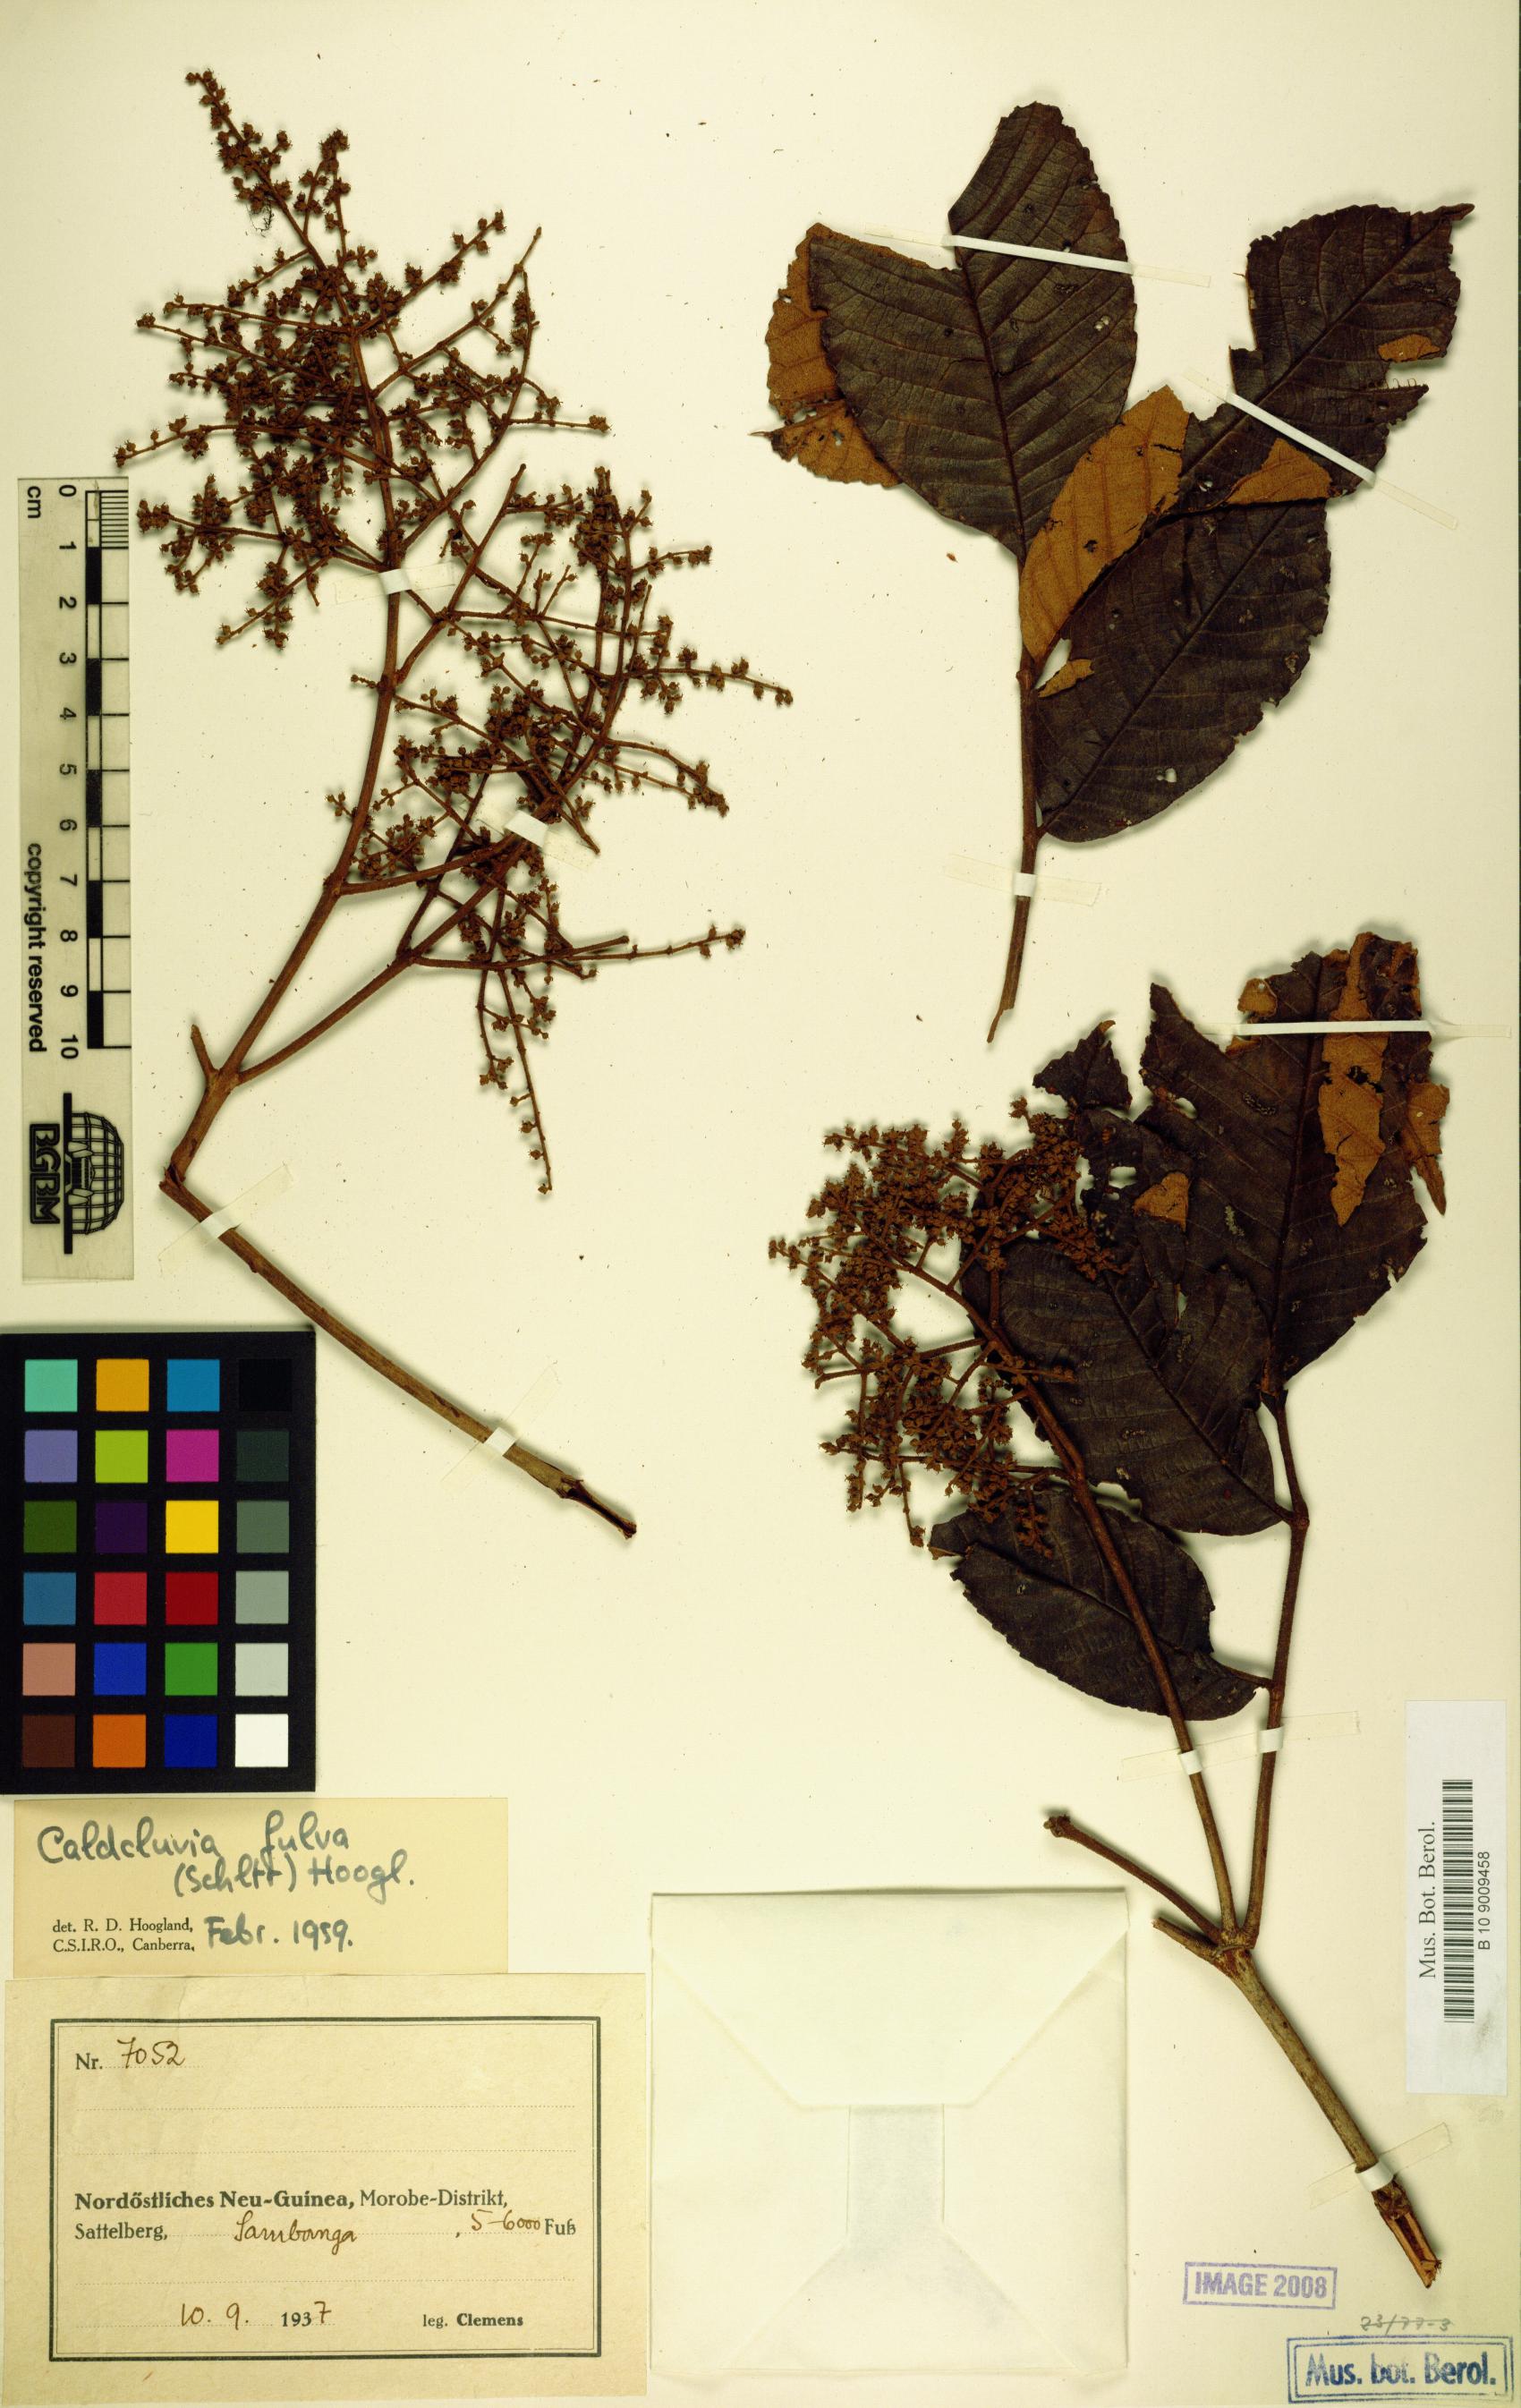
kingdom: Plantae
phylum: Tracheophyta
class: Magnoliopsida
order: Oxalidales
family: Cunoniaceae
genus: Ackama
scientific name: Ackama fulva
